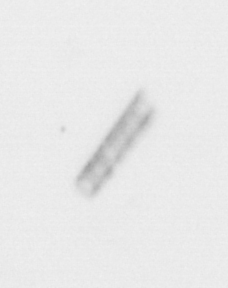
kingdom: Chromista
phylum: Ochrophyta
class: Bacillariophyceae
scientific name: Bacillariophyceae
